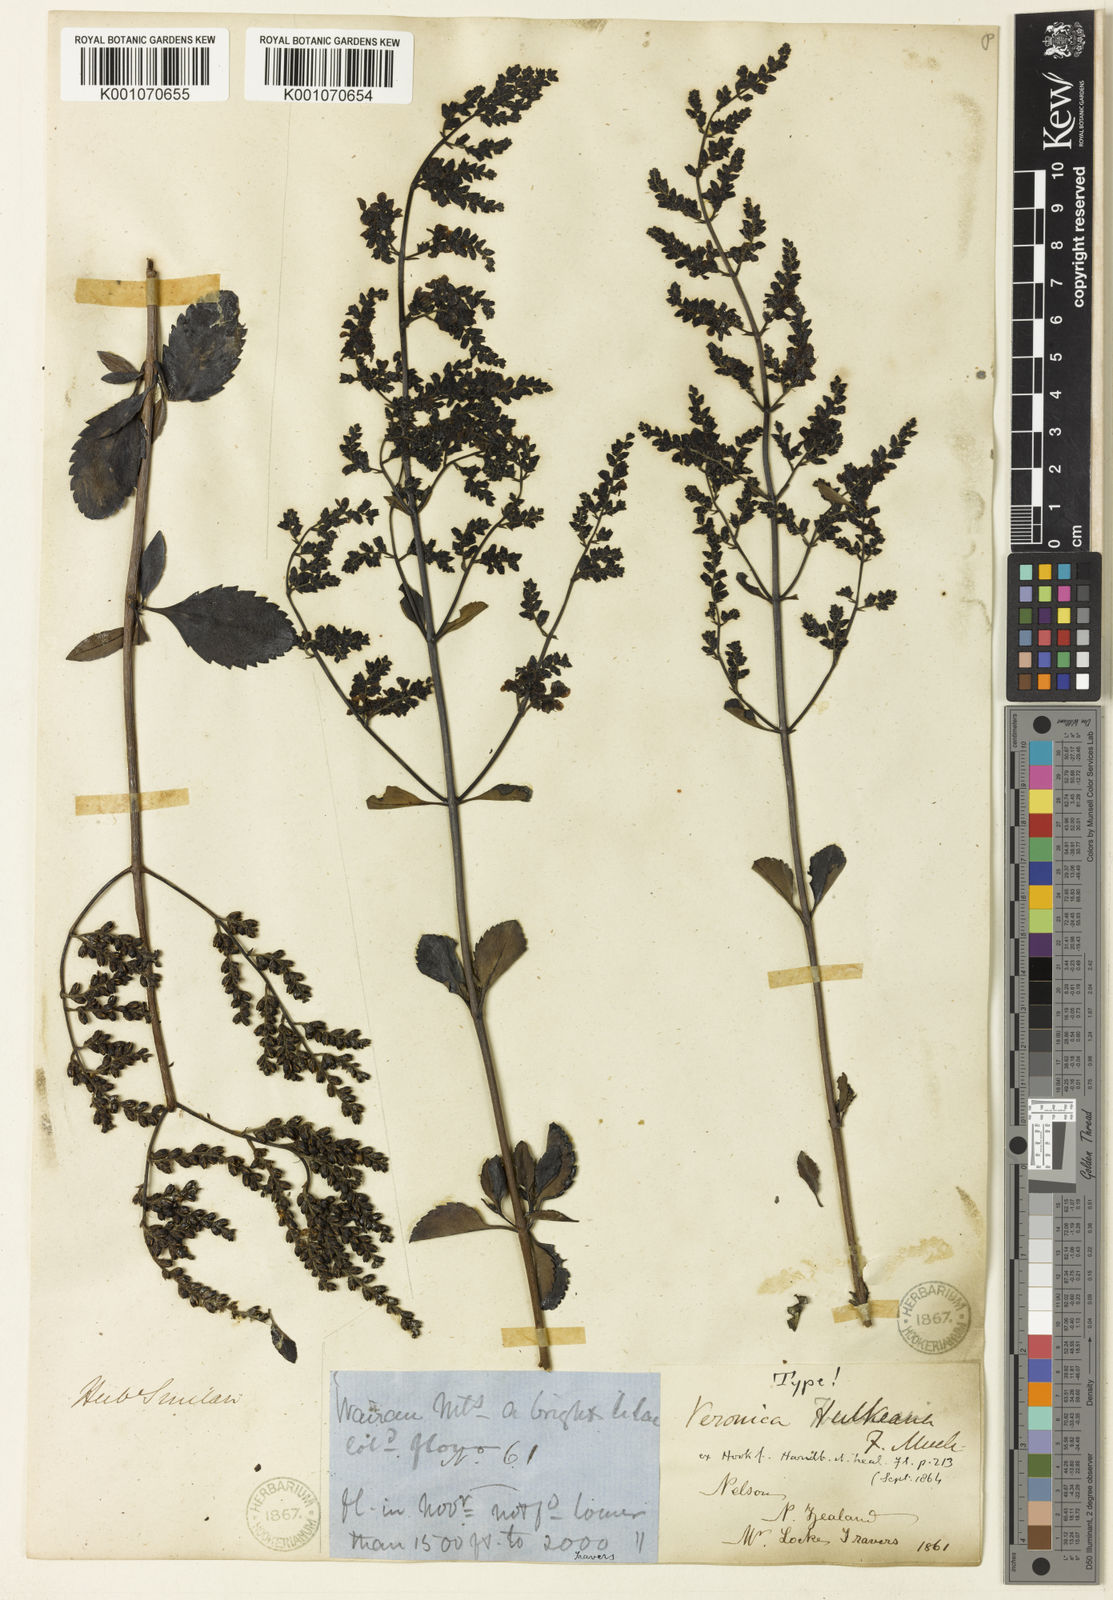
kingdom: Plantae
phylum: Tracheophyta
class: Magnoliopsida
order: Lamiales
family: Plantaginaceae
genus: Veronica
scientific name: Veronica
